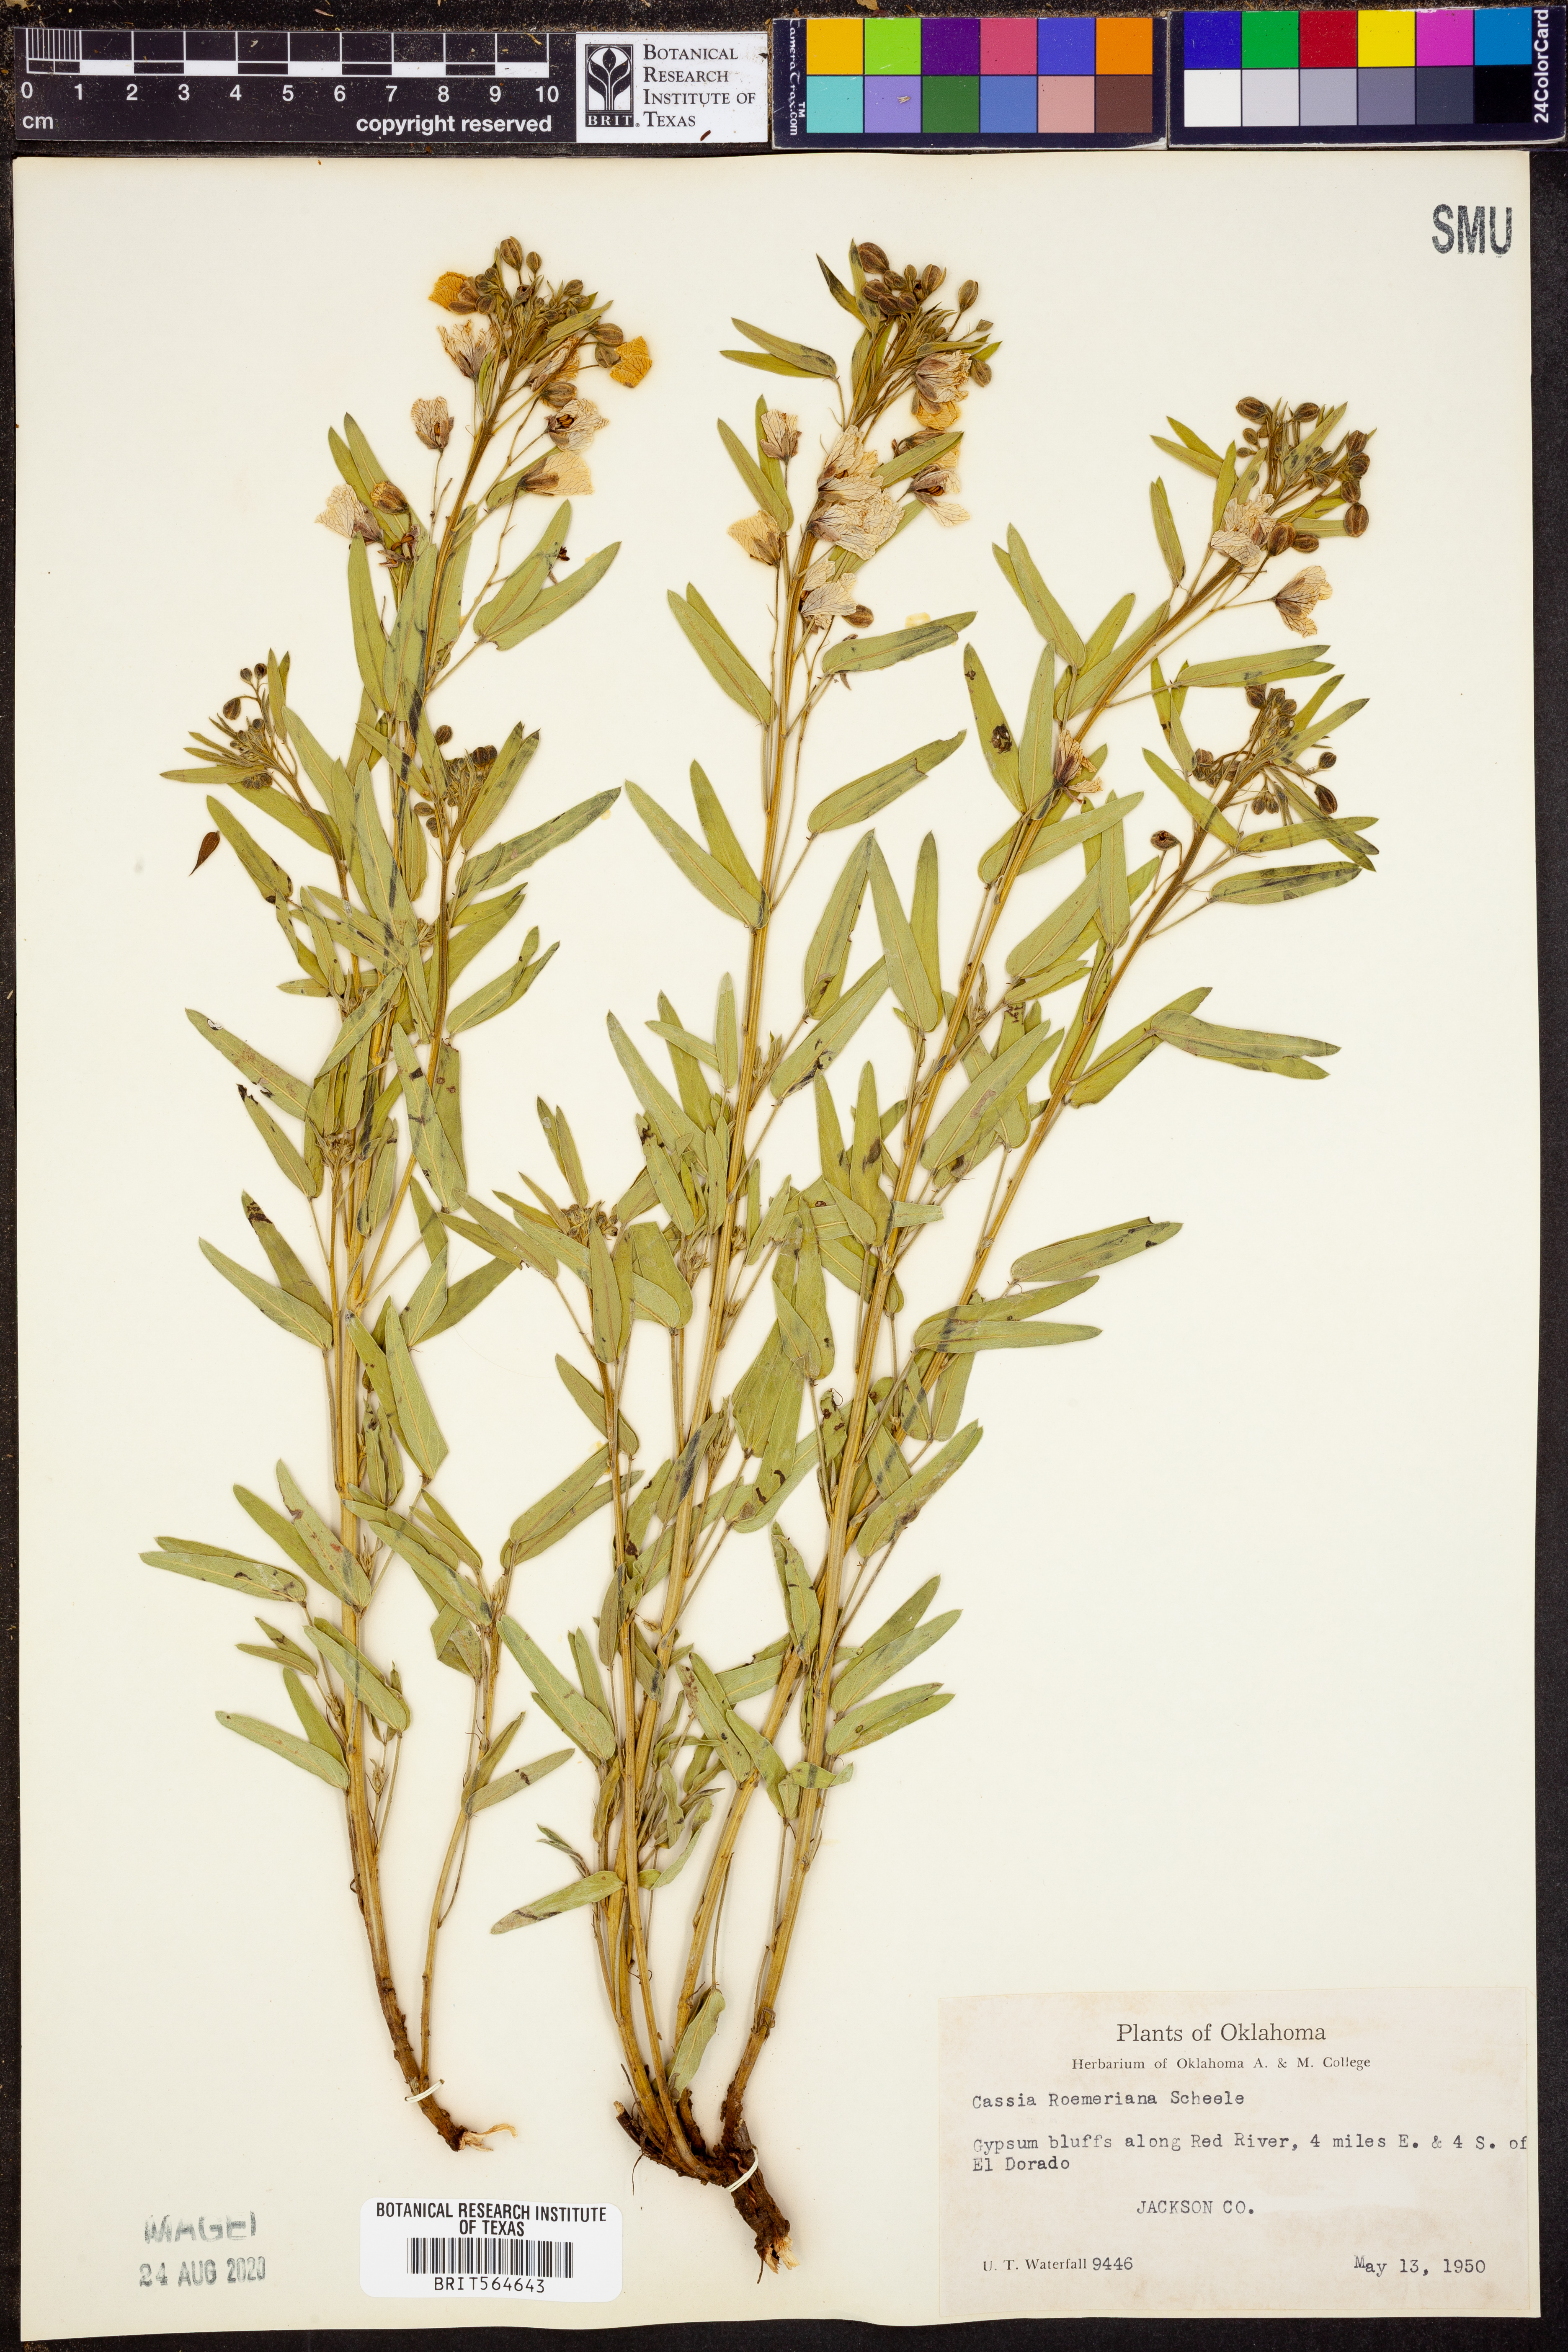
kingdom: Plantae
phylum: Tracheophyta
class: Magnoliopsida
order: Fabales
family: Fabaceae
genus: Senna
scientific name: Senna roemeriana
